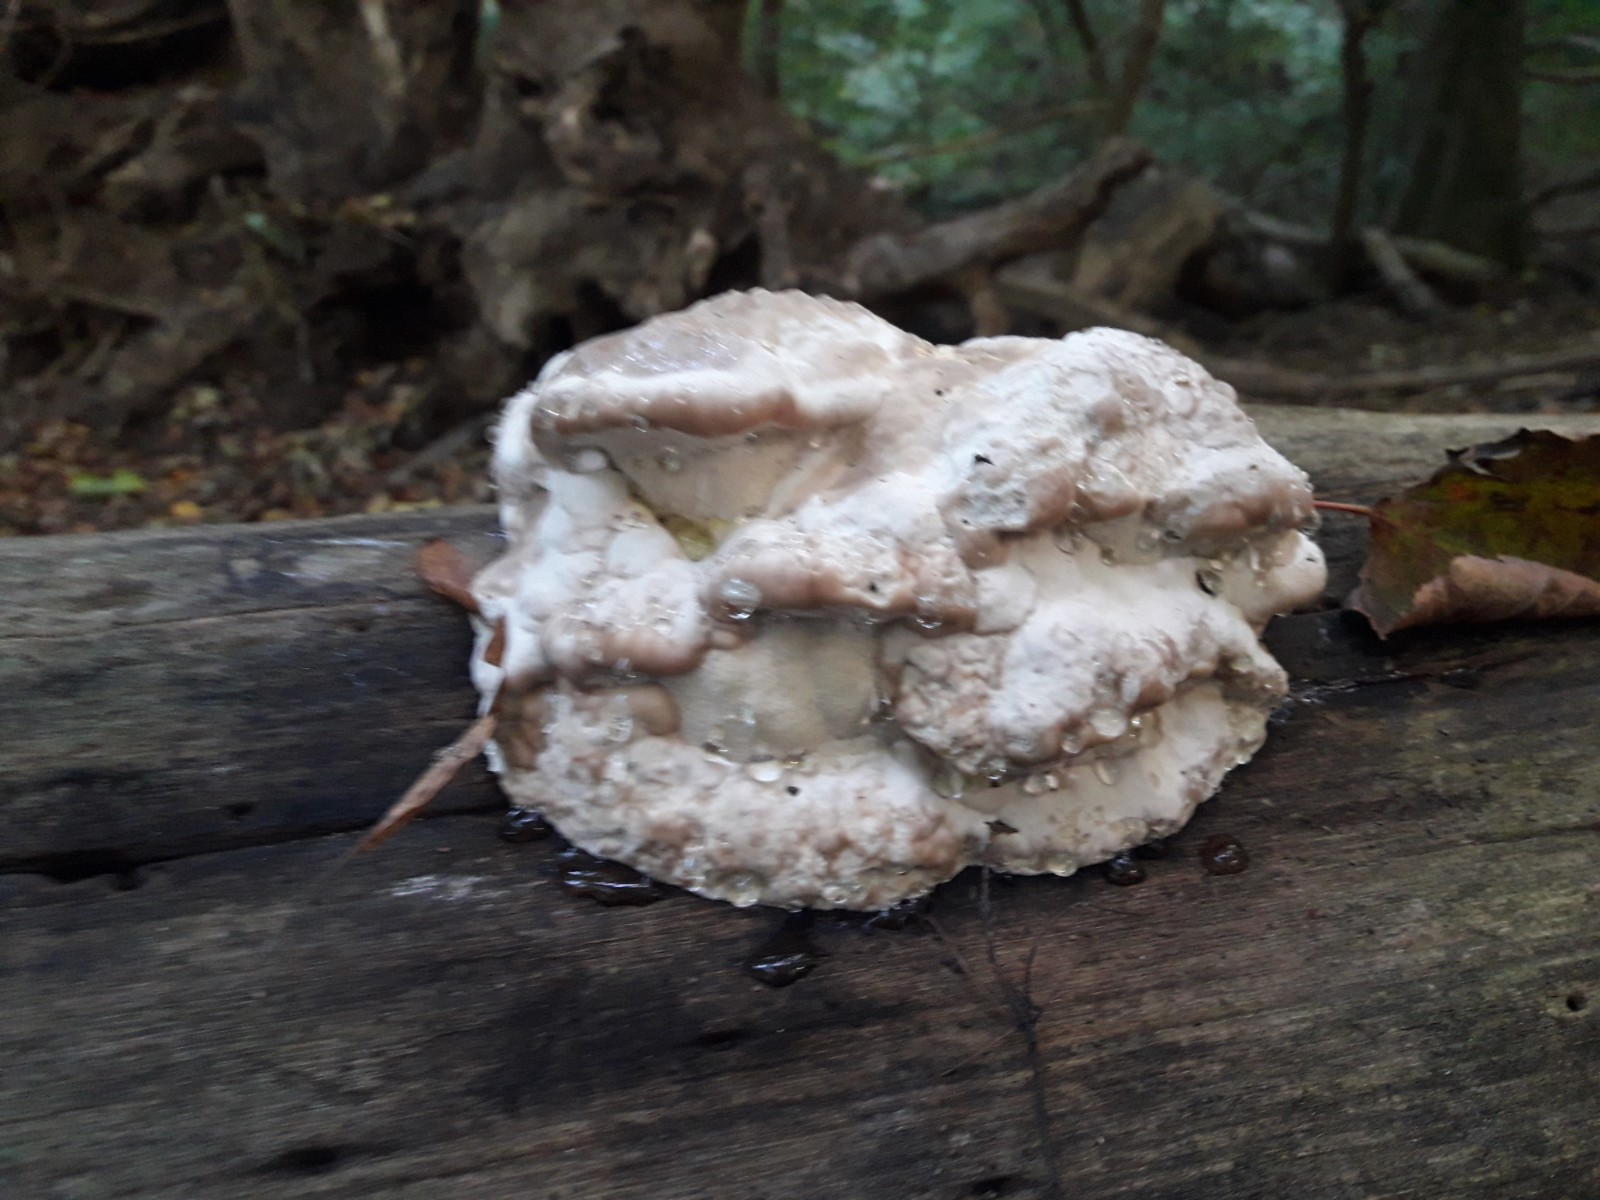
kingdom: Fungi
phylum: Basidiomycota
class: Agaricomycetes
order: Polyporales
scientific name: Polyporales
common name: poresvampordenen
